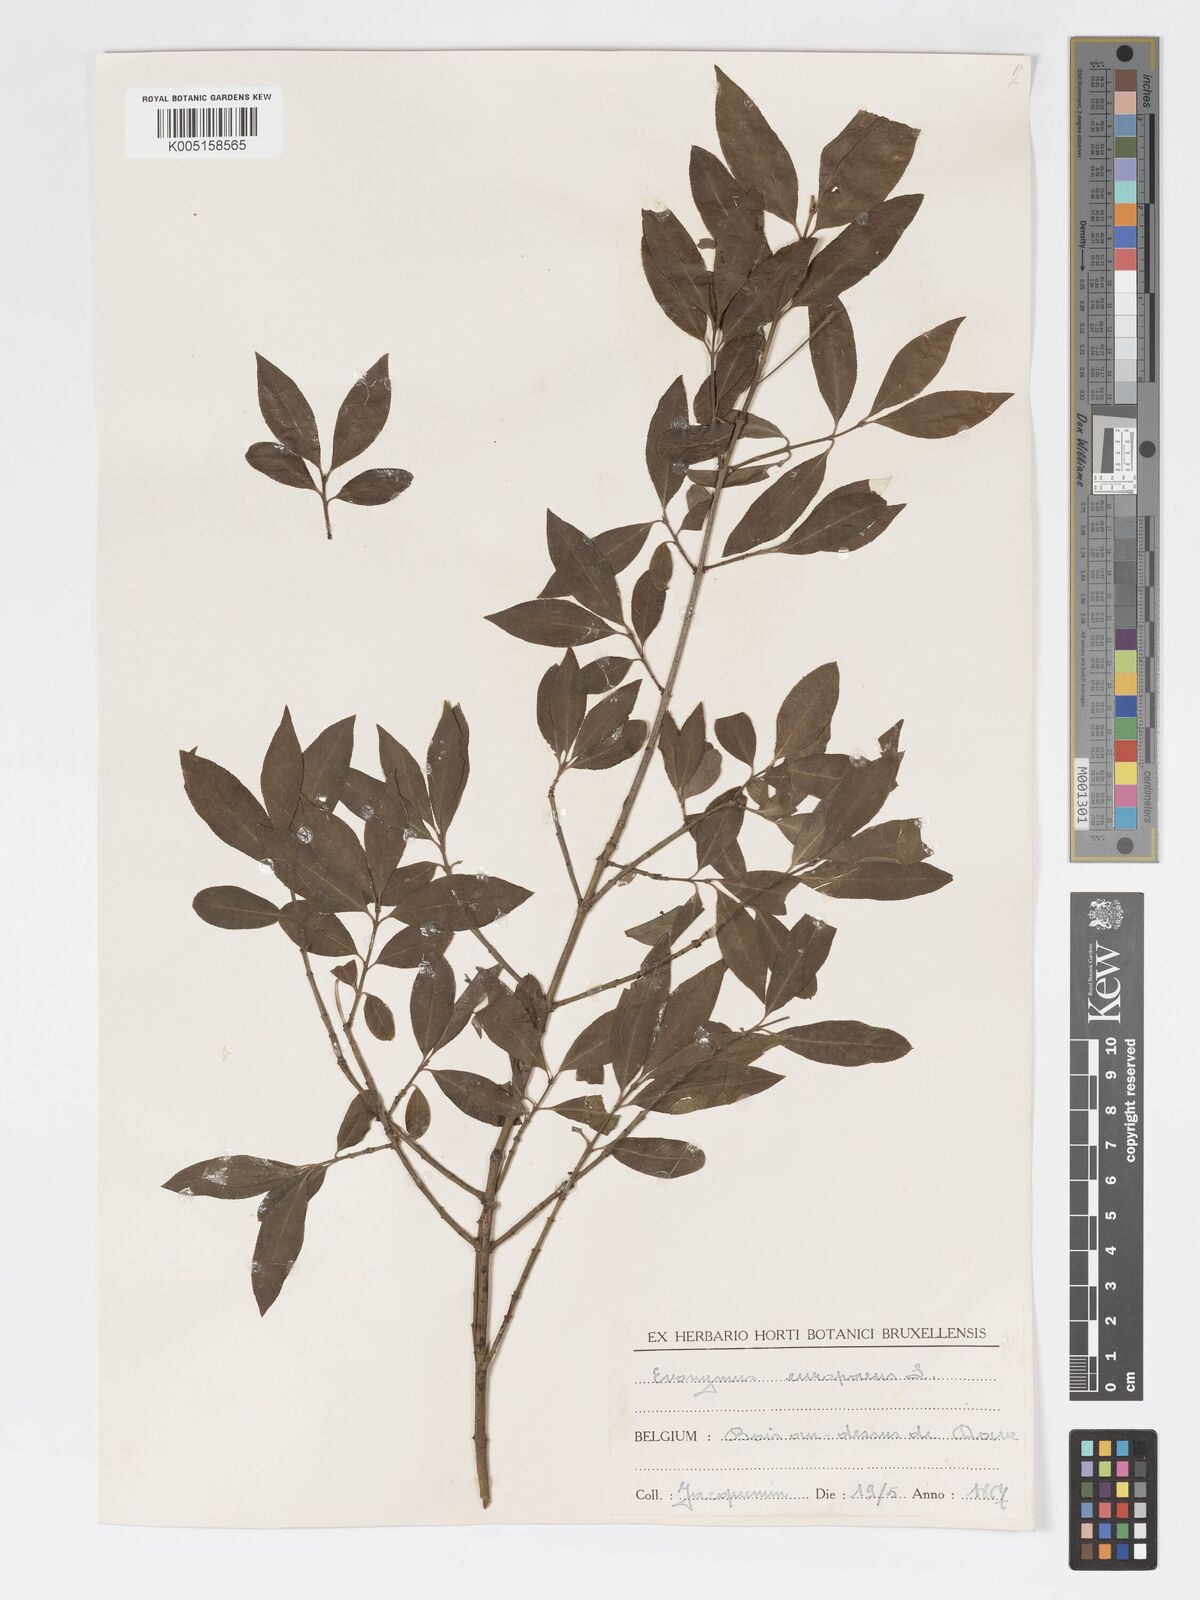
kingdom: Plantae
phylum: Tracheophyta
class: Magnoliopsida
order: Celastrales
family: Celastraceae
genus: Euonymus
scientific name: Euonymus europaeus
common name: Spindle
